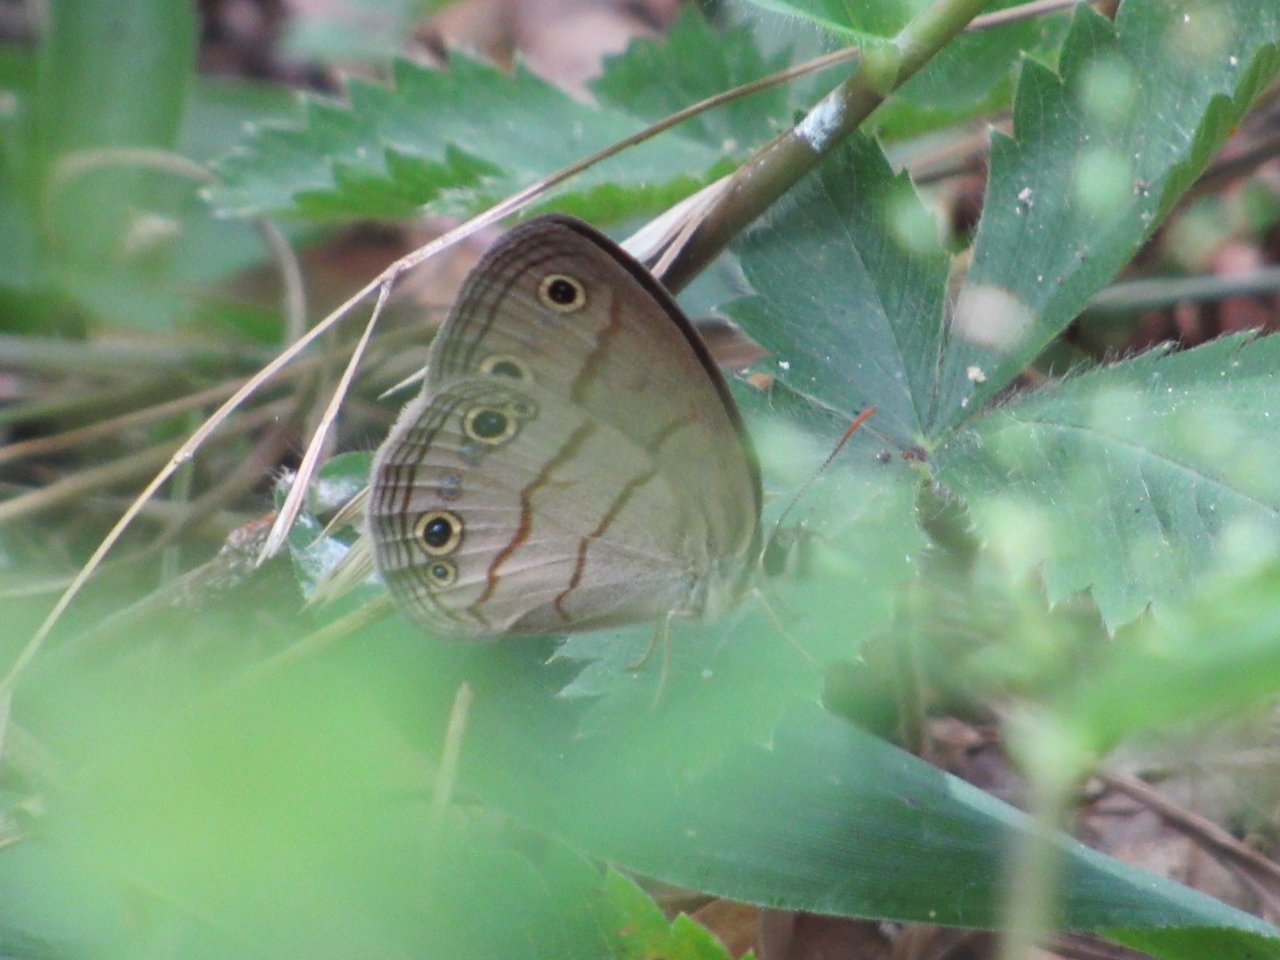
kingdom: Animalia
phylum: Arthropoda
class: Insecta
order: Lepidoptera
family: Nymphalidae
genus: Euptychia
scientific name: Euptychia cymela
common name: Little Wood Satyr
